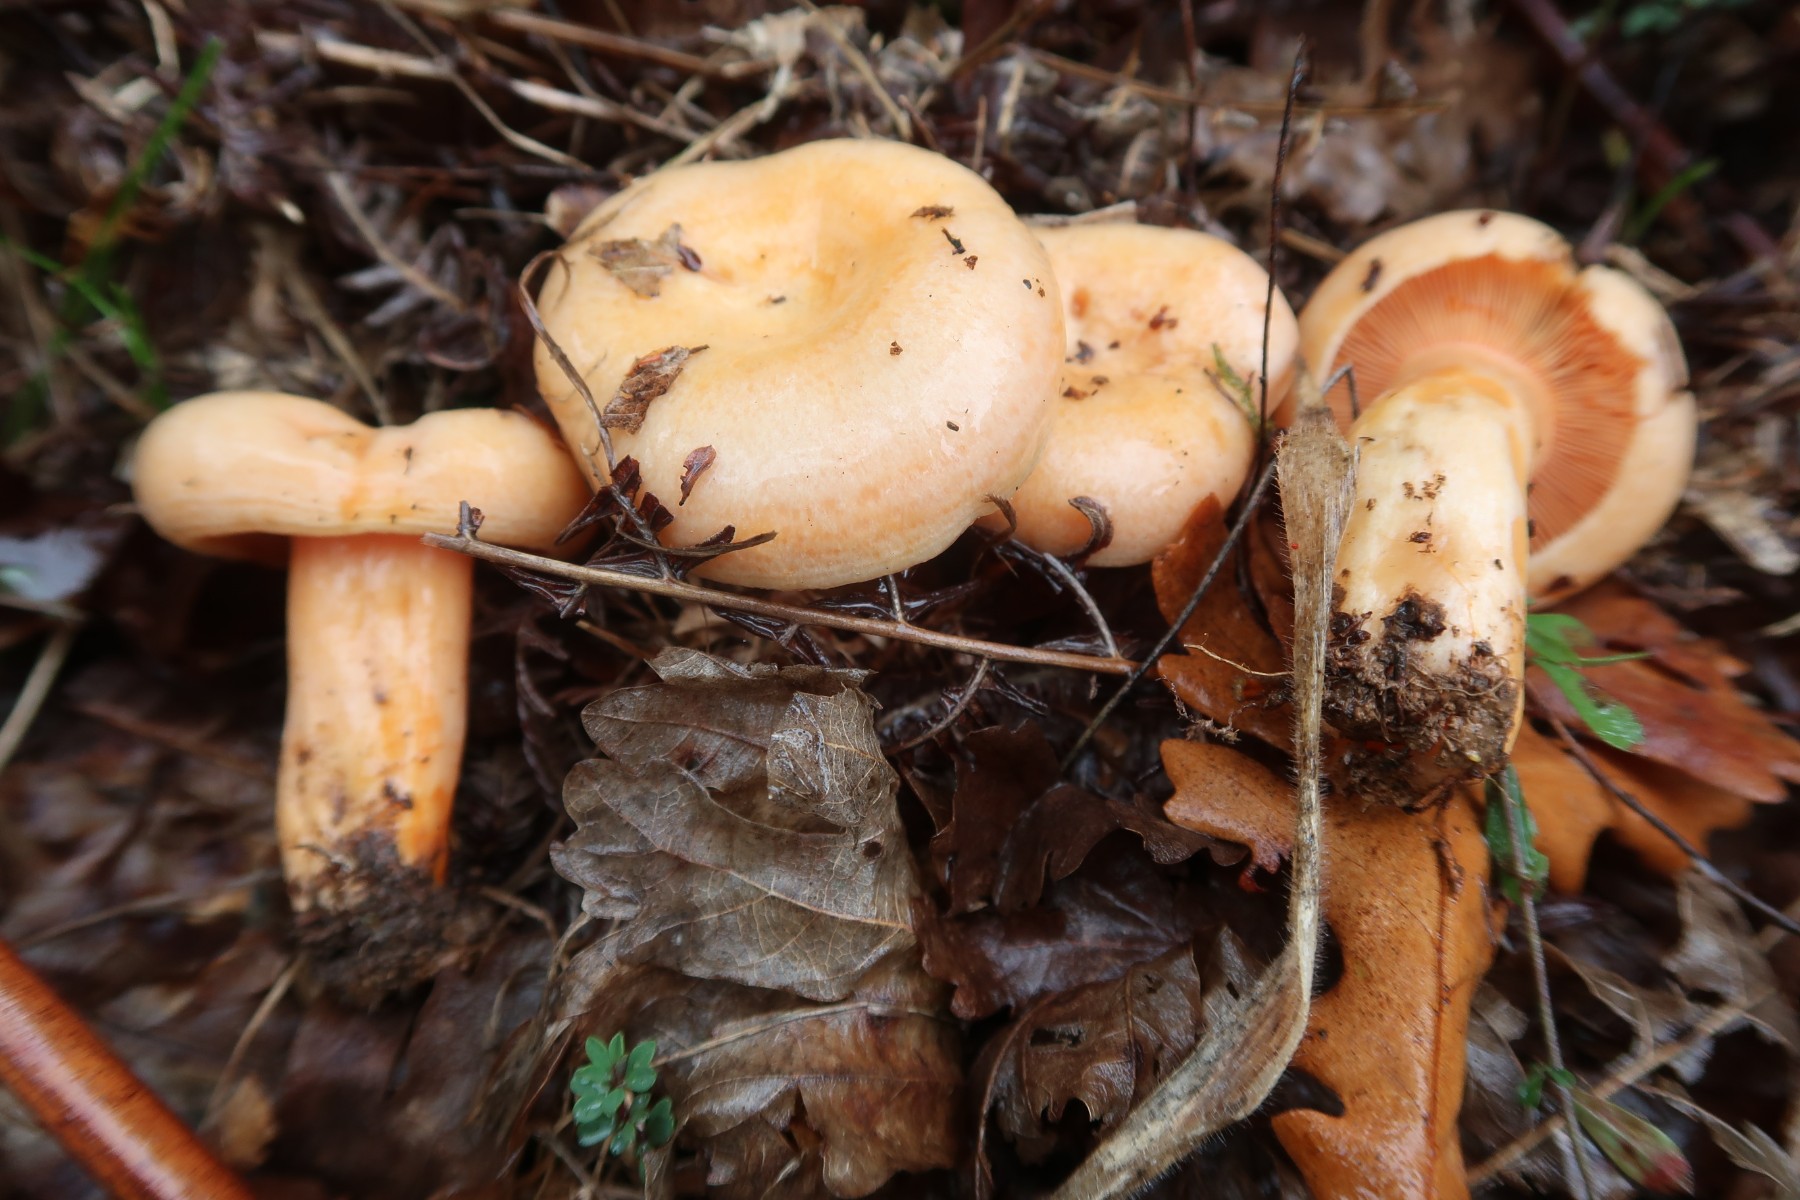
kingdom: Fungi
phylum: Basidiomycota
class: Agaricomycetes
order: Russulales
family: Russulaceae
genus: Lactarius
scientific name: Lactarius salmonicolor
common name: laksefarvet mælkehat
